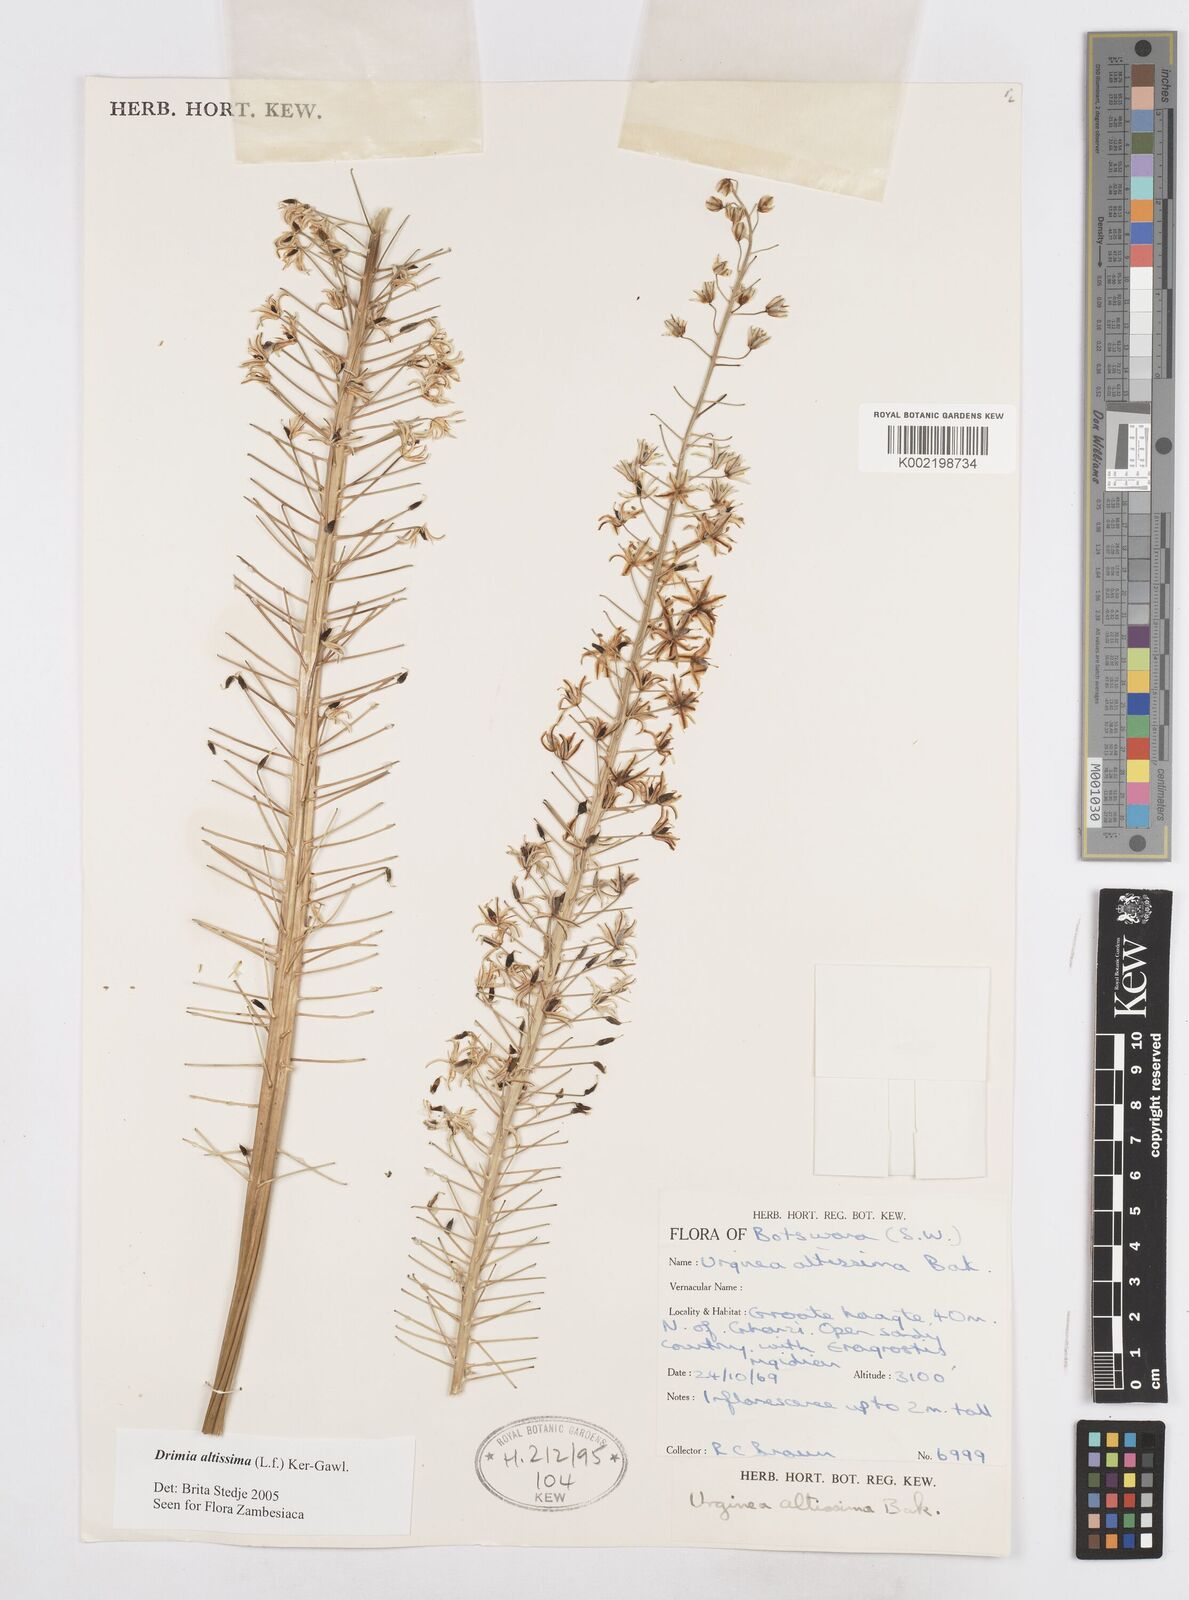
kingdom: Plantae
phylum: Tracheophyta
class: Liliopsida
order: Asparagales
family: Asparagaceae
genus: Drimia
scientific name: Drimia altissima
